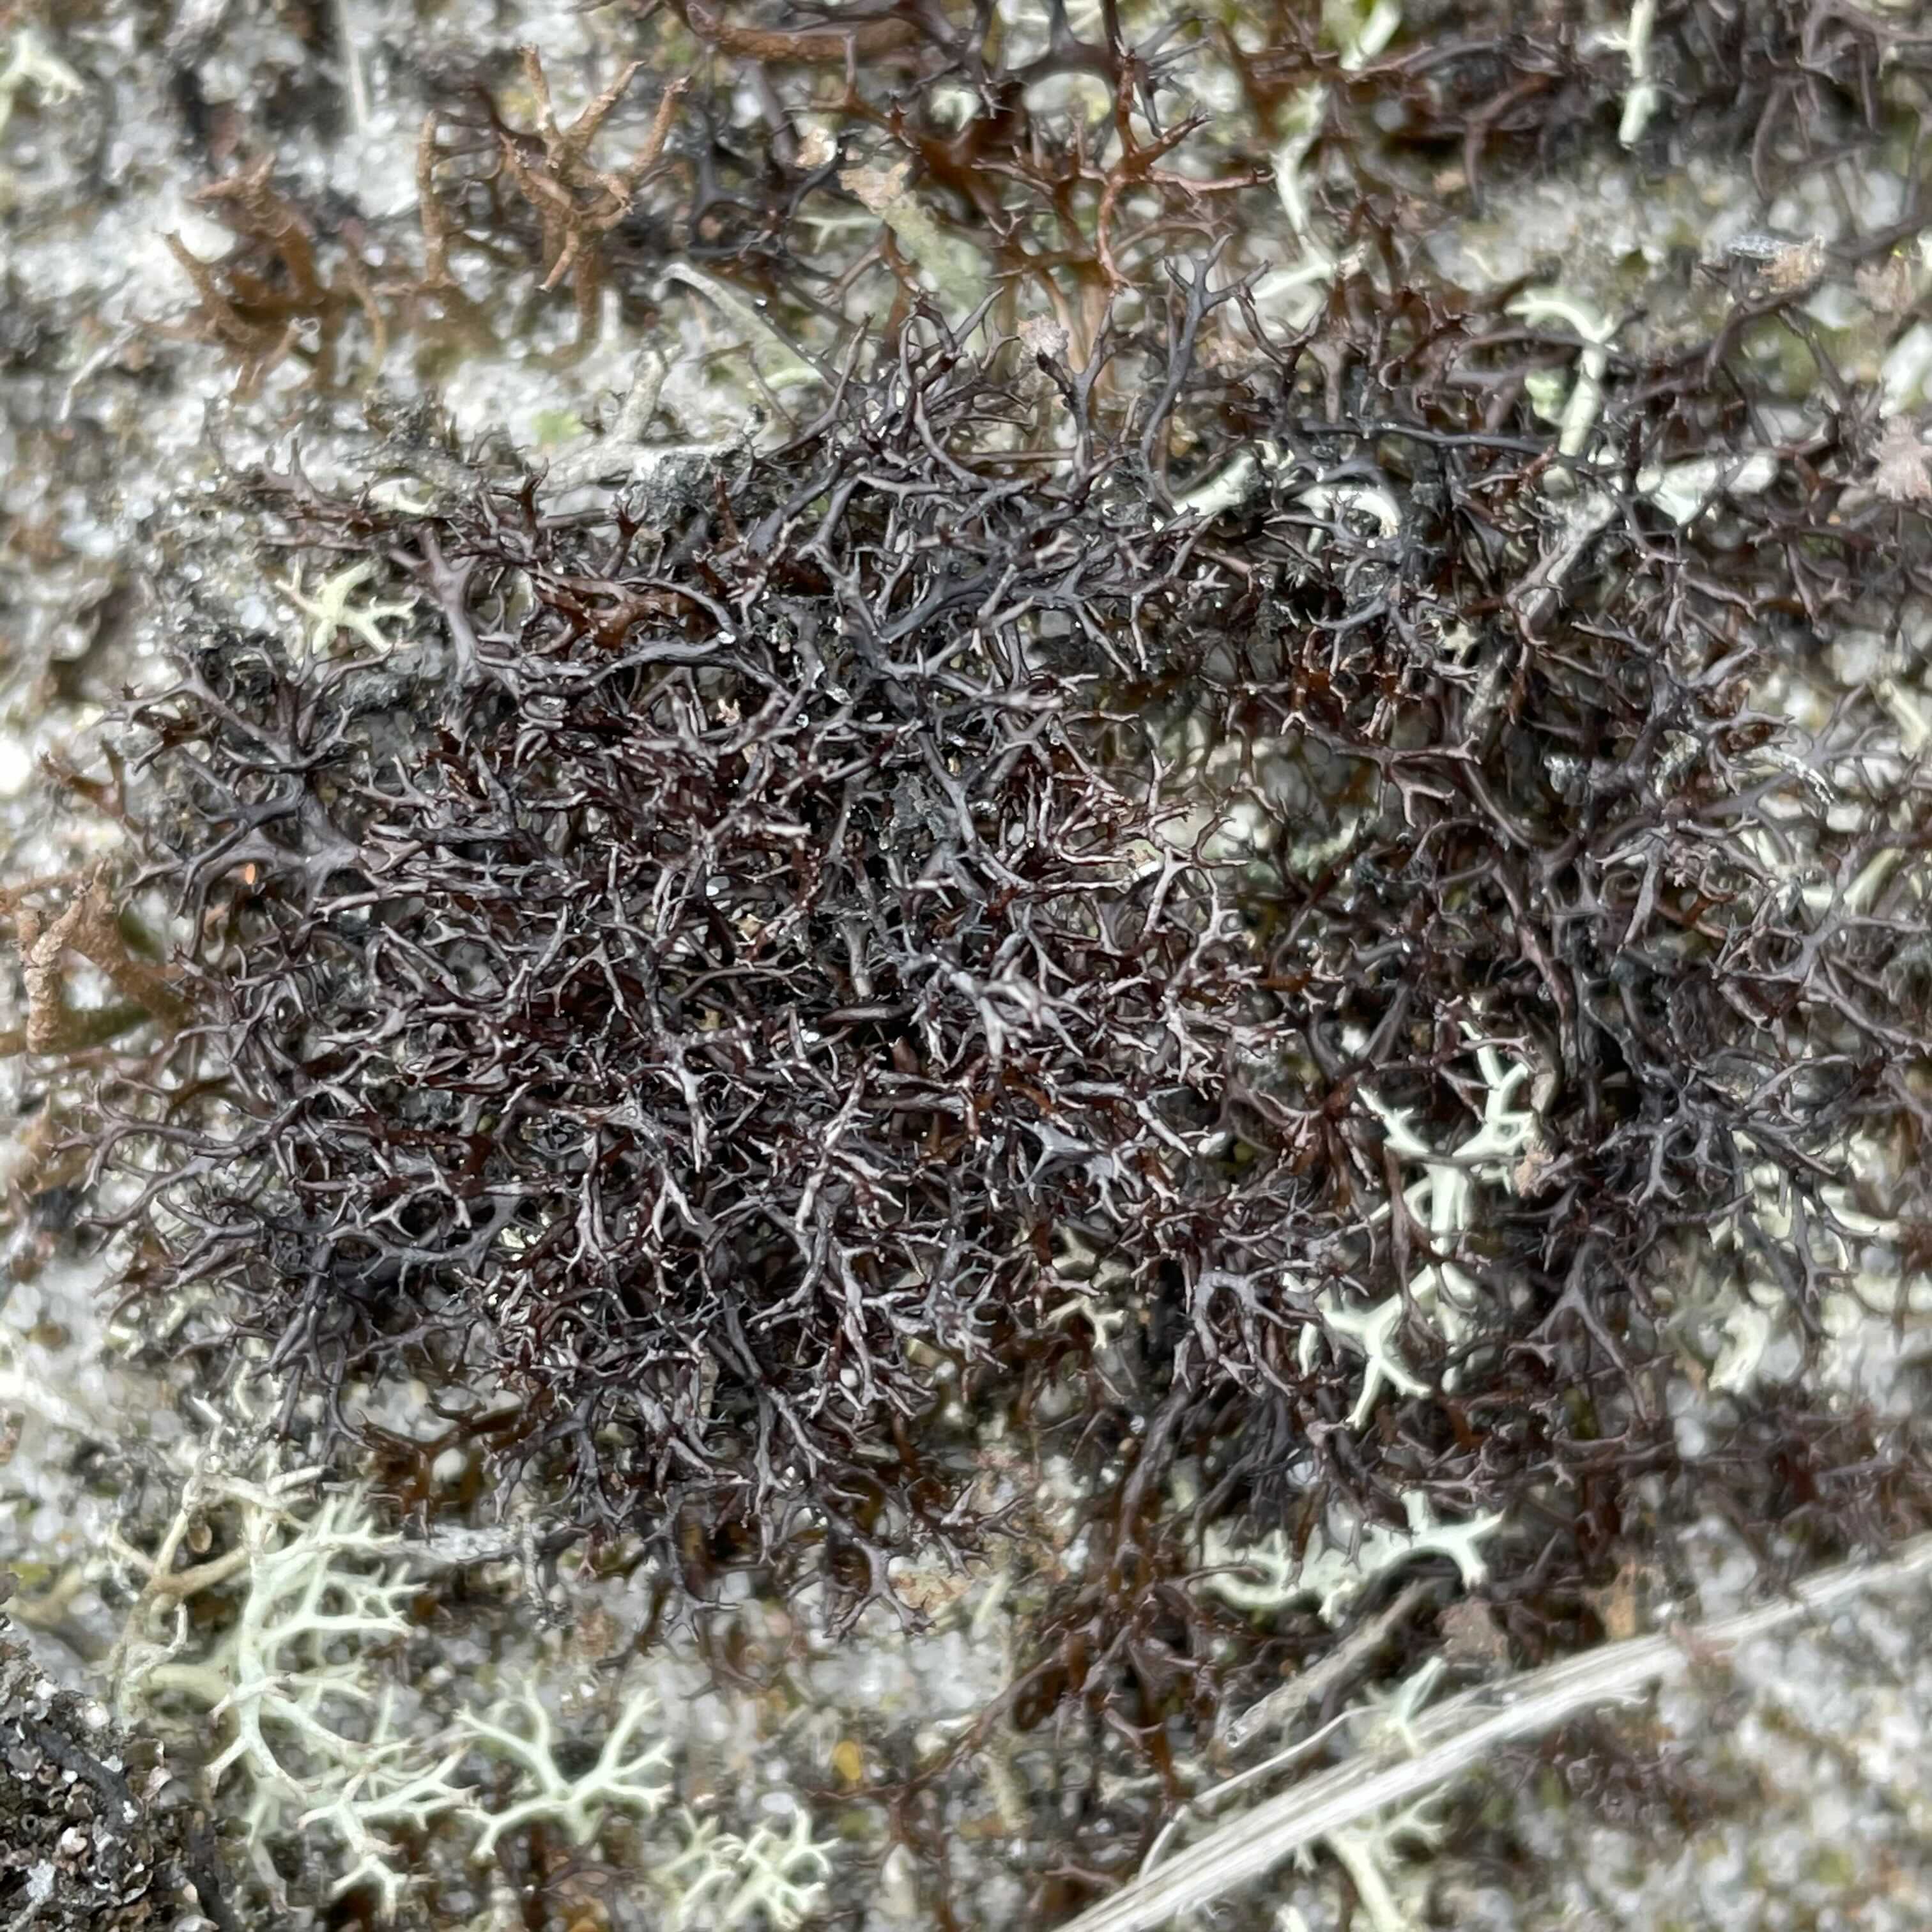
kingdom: Fungi
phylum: Ascomycota
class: Lecanoromycetes
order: Lecanorales
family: Parmeliaceae
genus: Cetraria
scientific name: Cetraria muricata
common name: tue-tjørnelav
